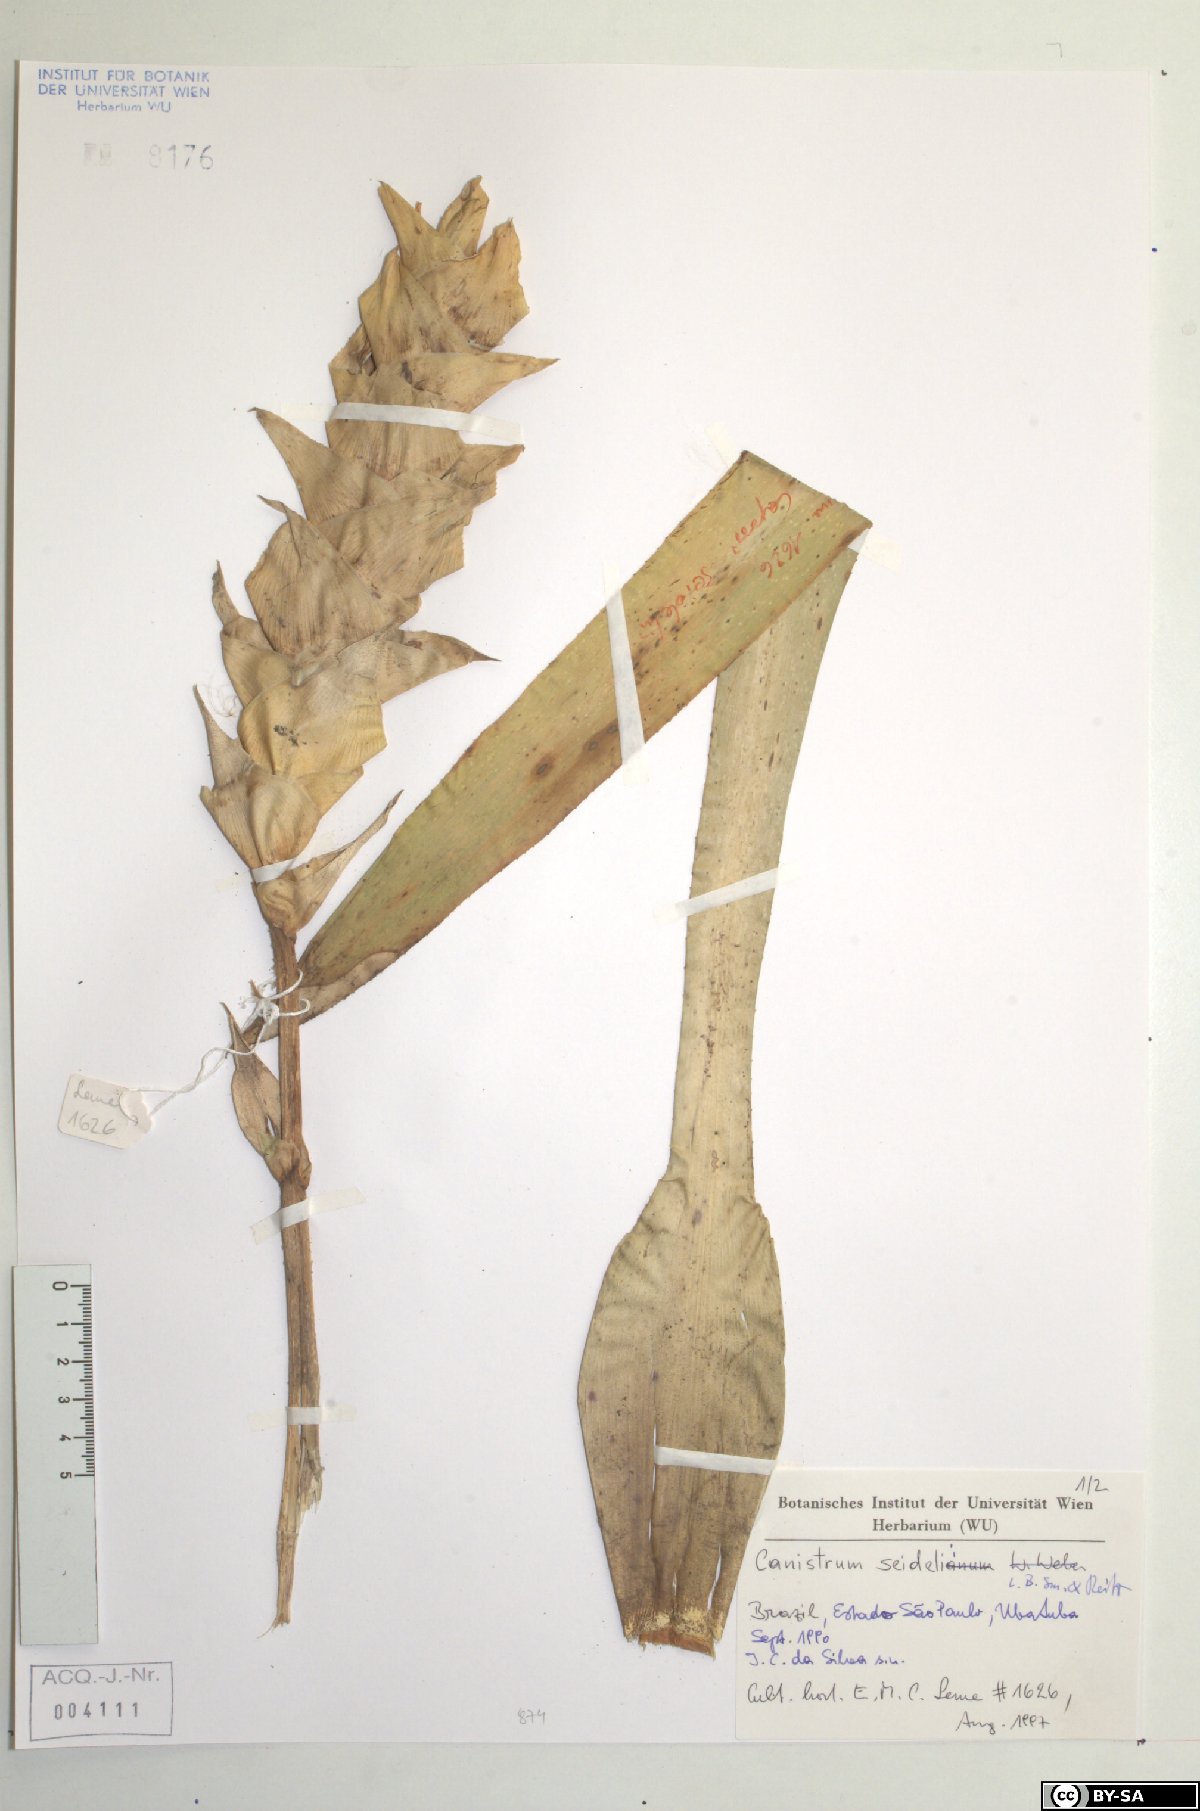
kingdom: Plantae
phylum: Tracheophyta
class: Liliopsida
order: Poales
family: Bromeliaceae
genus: Canistrum
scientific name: Canistrum seidelianum
